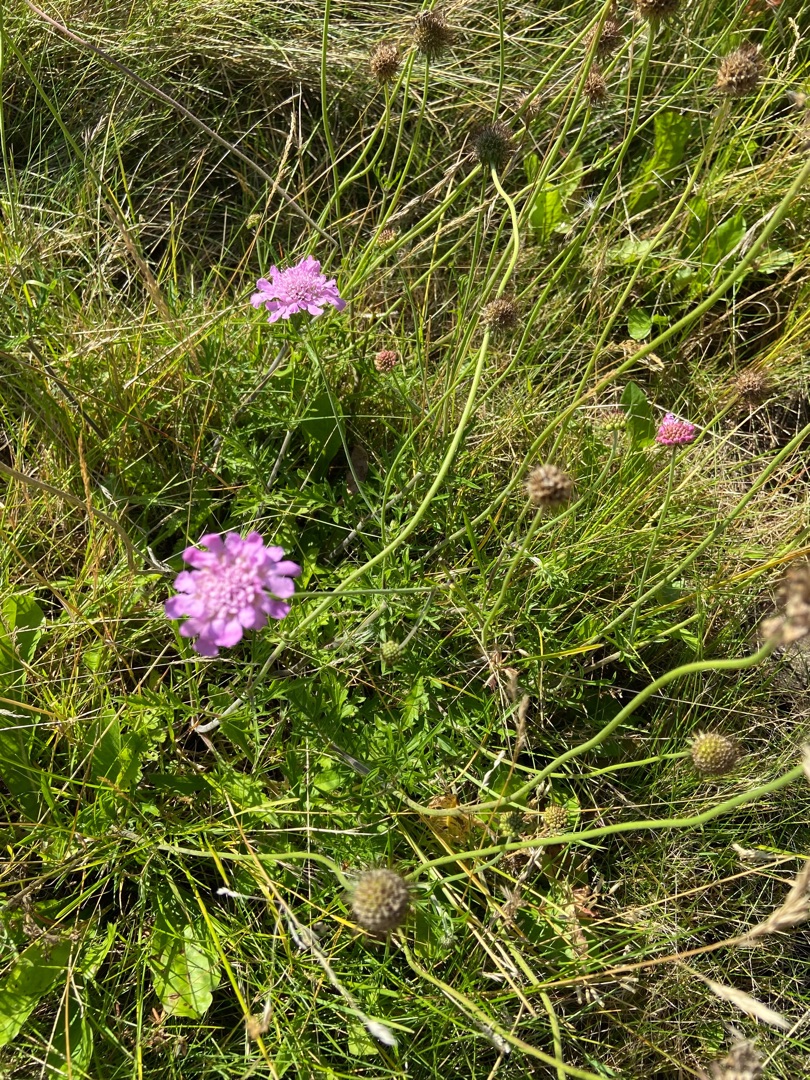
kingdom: Plantae
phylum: Tracheophyta
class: Magnoliopsida
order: Dipsacales
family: Caprifoliaceae
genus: Scabiosa
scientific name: Scabiosa columbaria
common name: Due-skabiose
